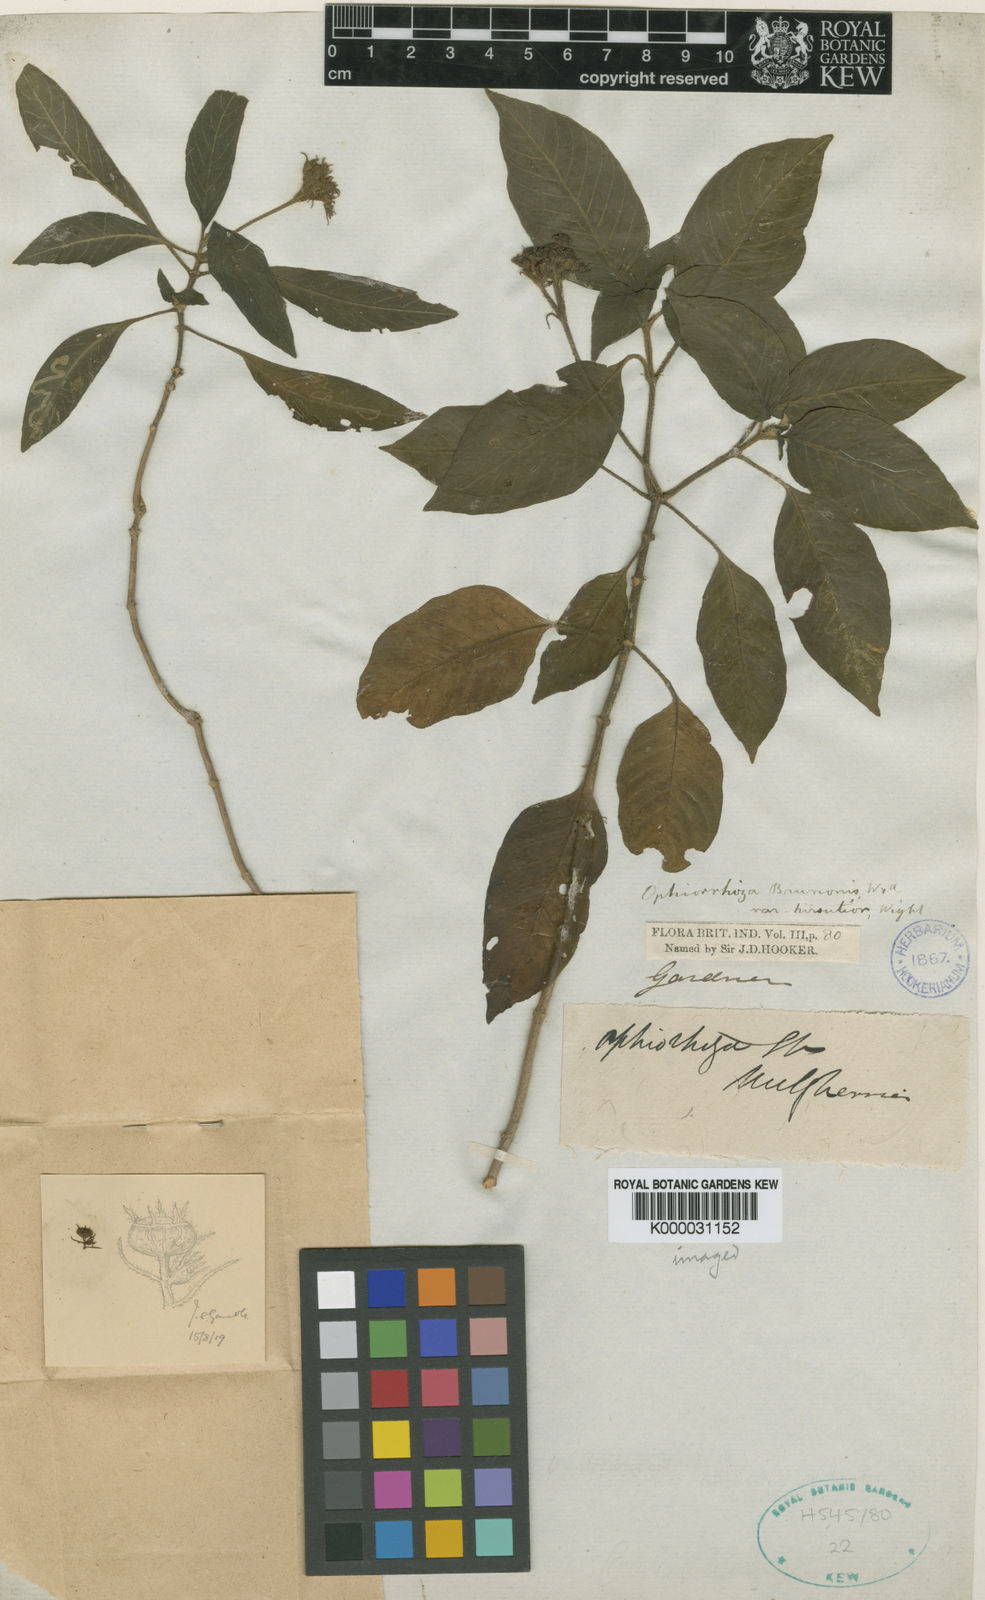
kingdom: Plantae
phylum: Tracheophyta
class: Magnoliopsida
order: Gentianales
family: Rubiaceae
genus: Ophiorrhiza
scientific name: Ophiorrhiza hirsutula
